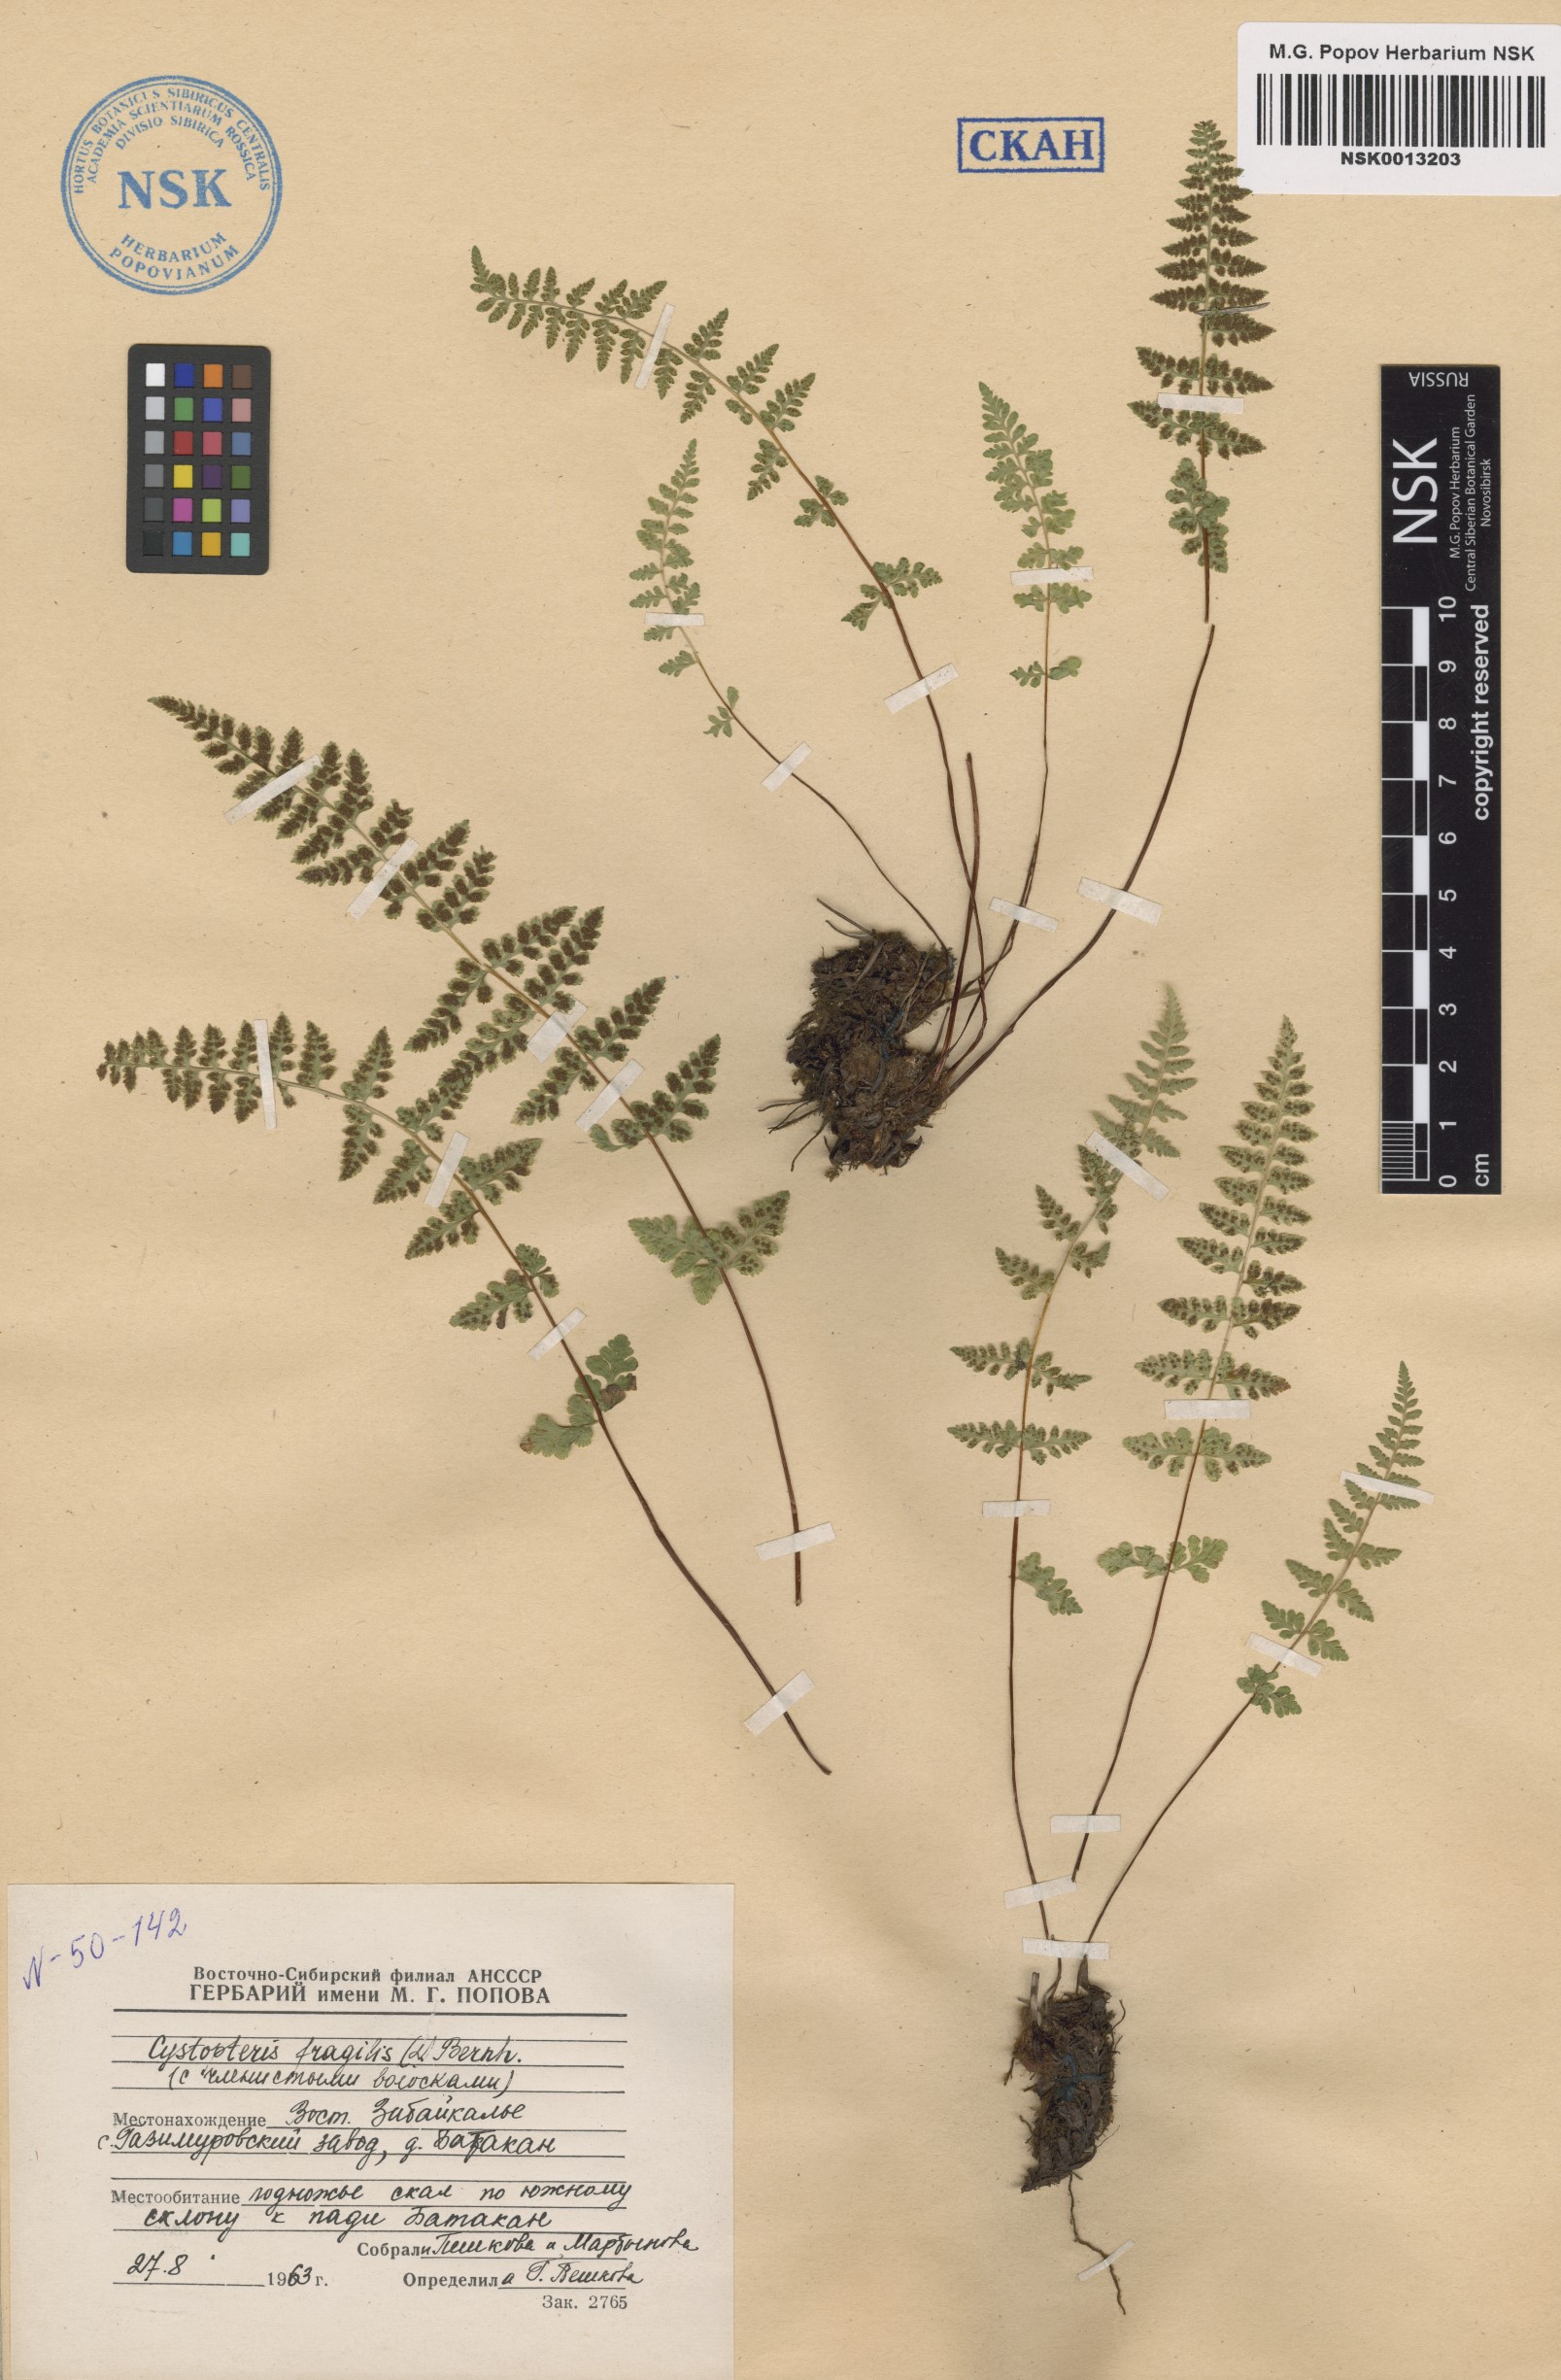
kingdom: Plantae
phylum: Tracheophyta
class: Polypodiopsida
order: Polypodiales
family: Cystopteridaceae
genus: Cystopteris
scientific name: Cystopteris fragilis
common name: Brittle bladder fern
